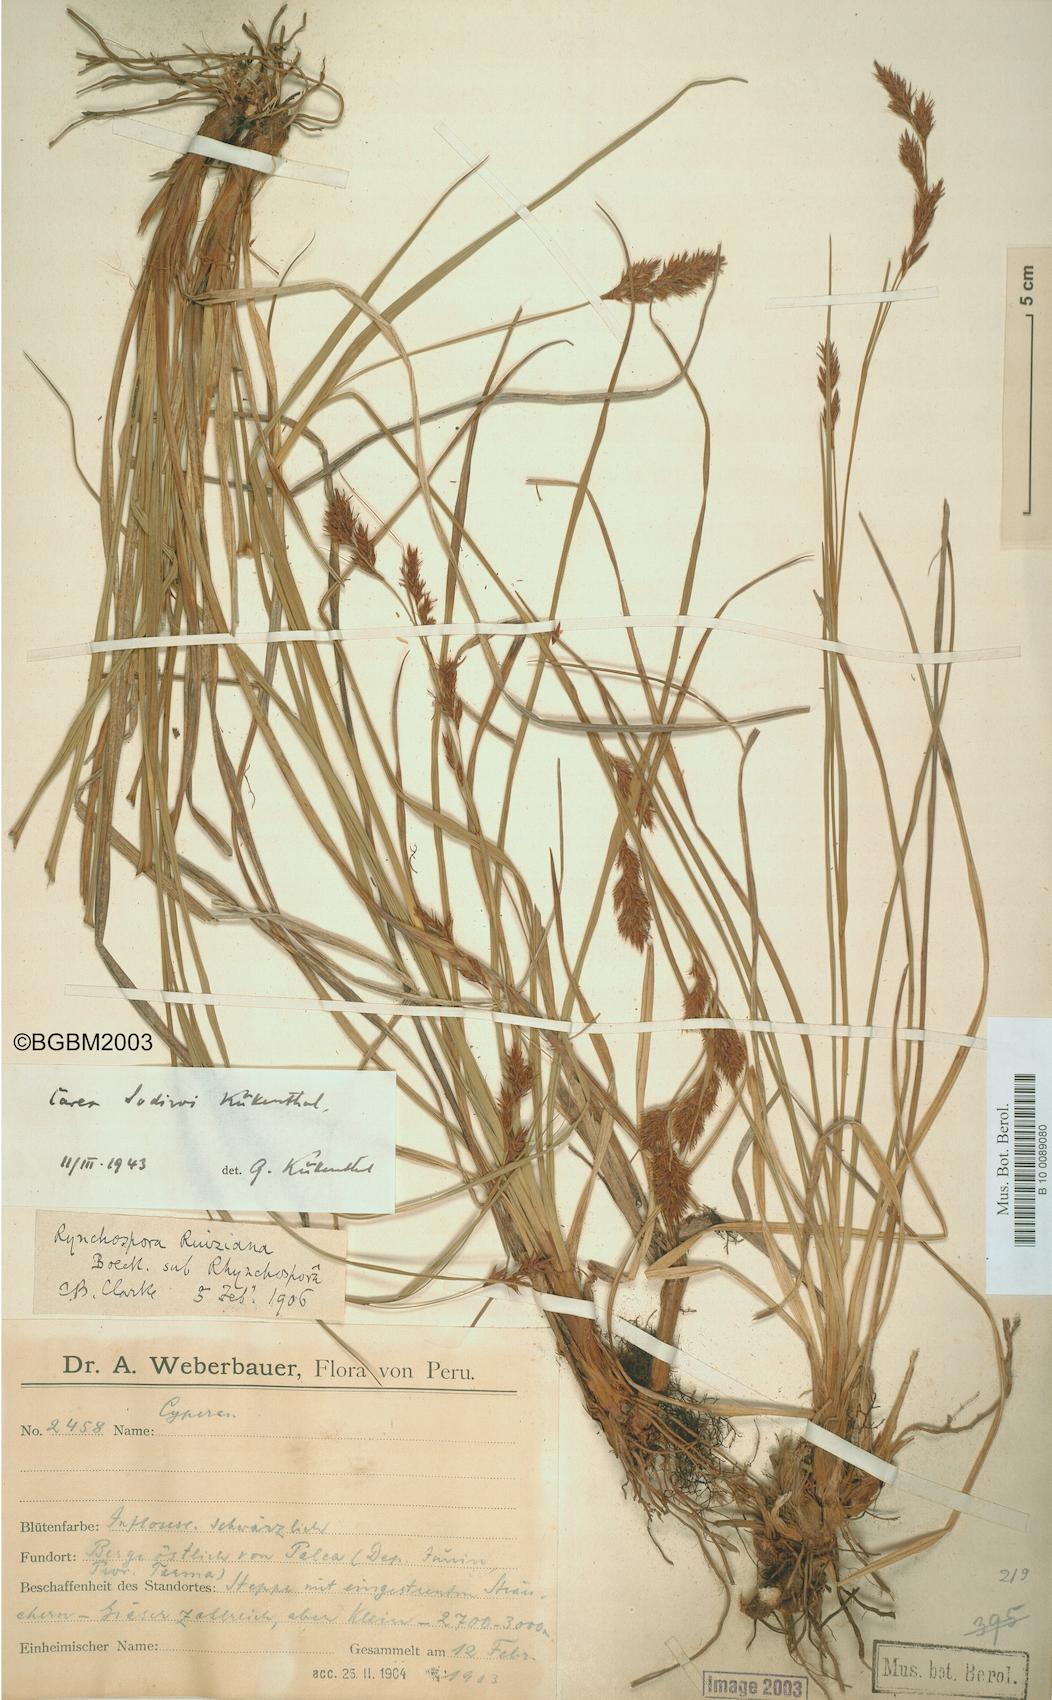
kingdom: Plantae
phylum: Tracheophyta
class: Liliopsida
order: Poales
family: Cyperaceae
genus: Carex
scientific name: Carex sodiroi
